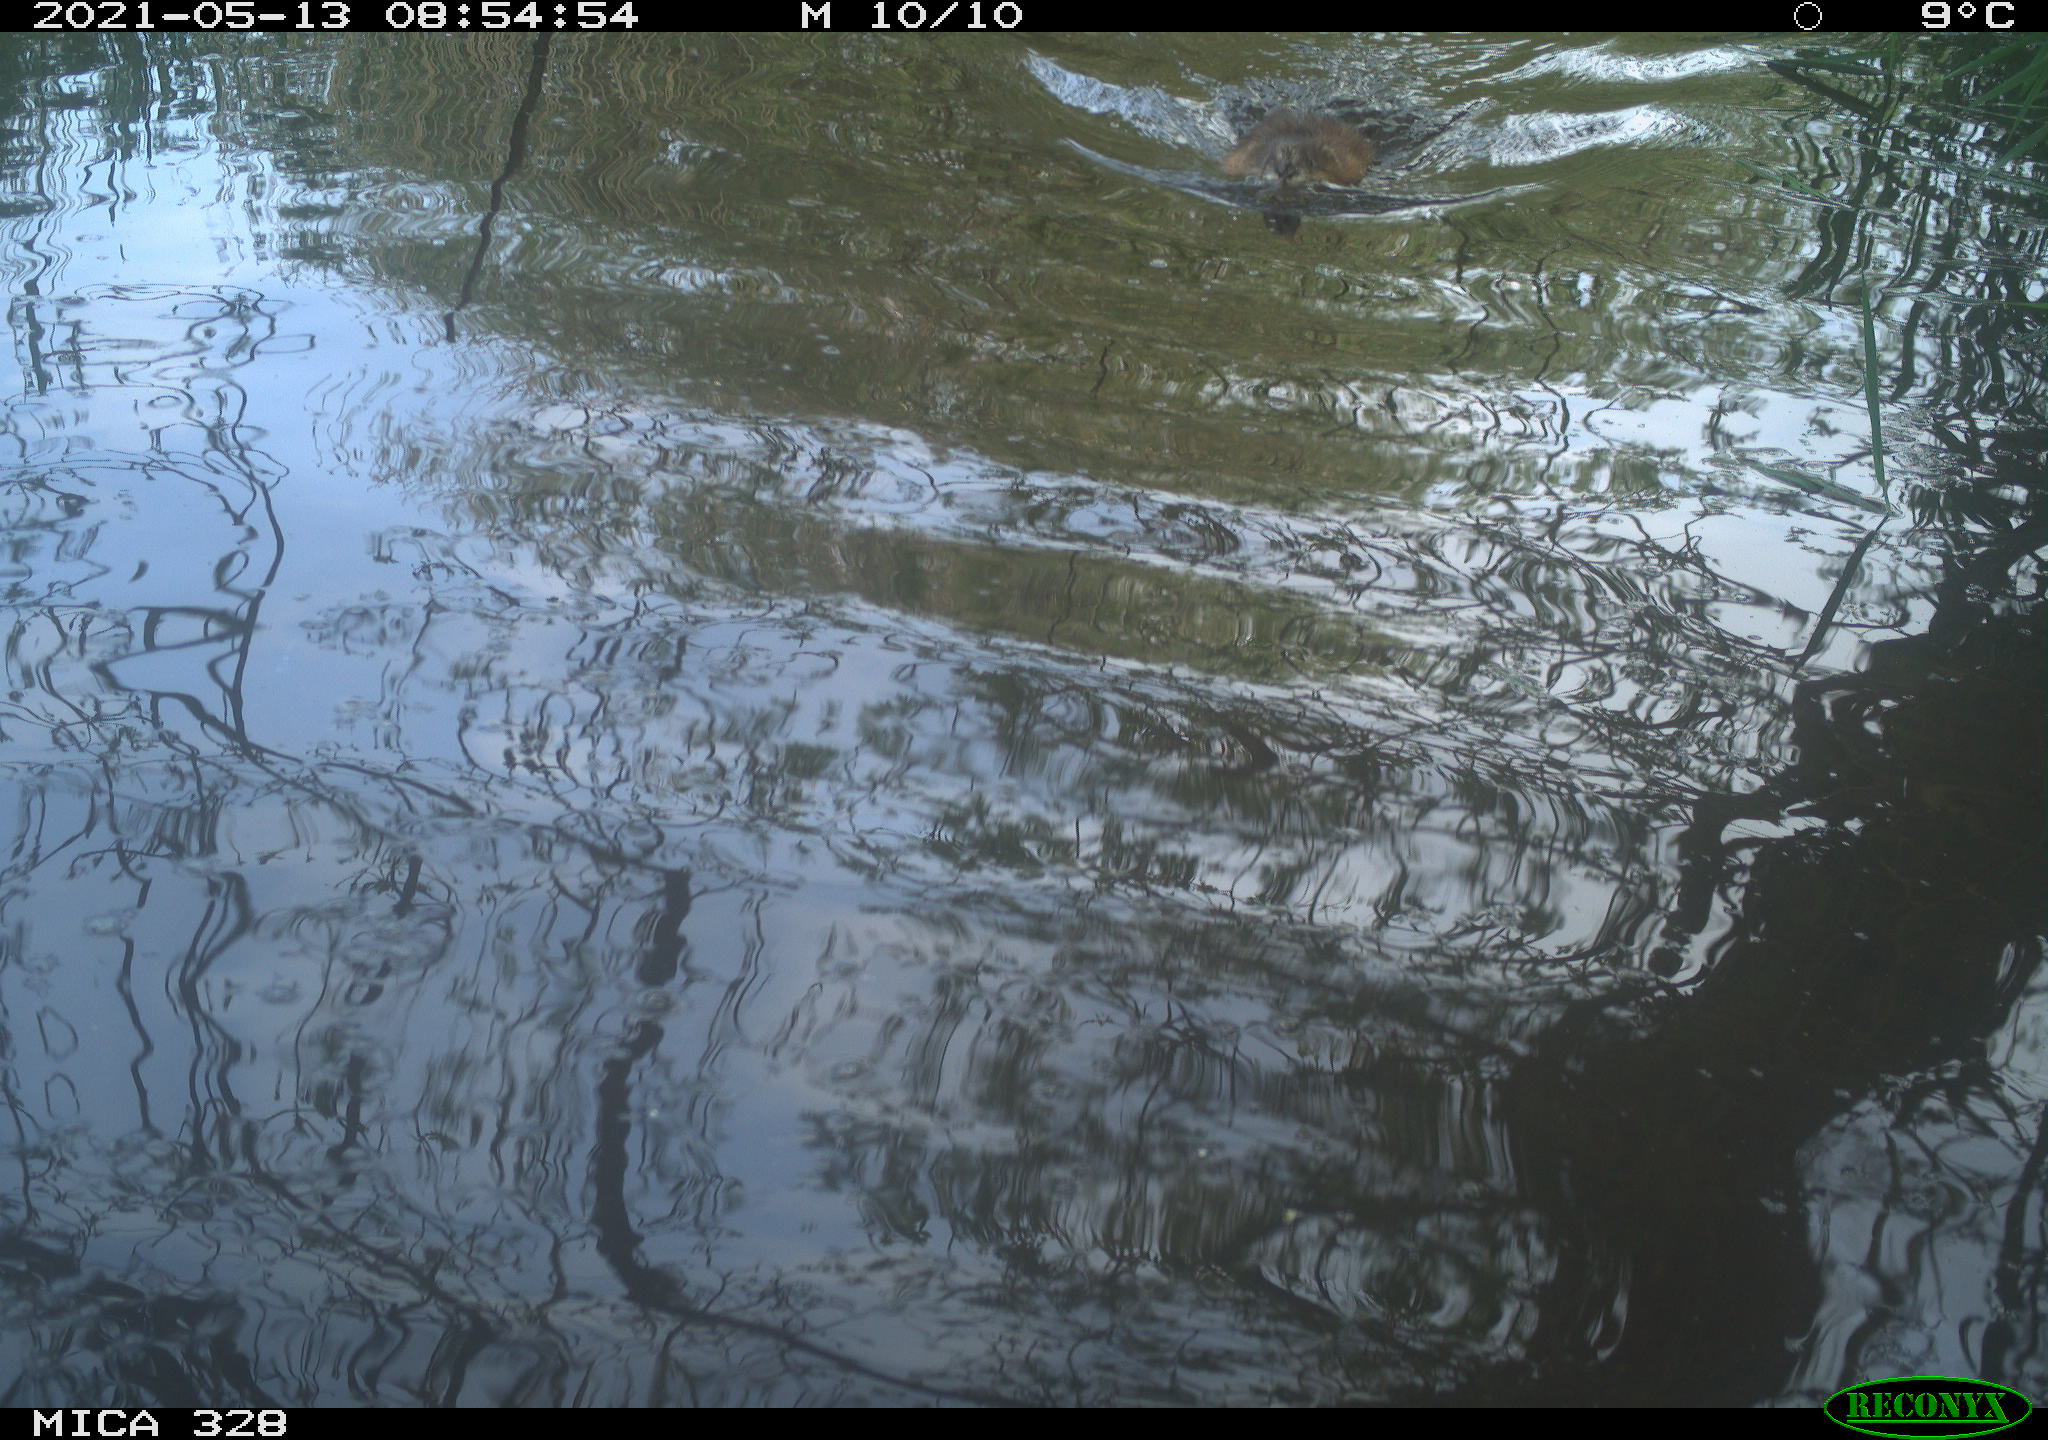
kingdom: Animalia
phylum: Chordata
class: Mammalia
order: Rodentia
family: Cricetidae
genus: Ondatra
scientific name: Ondatra zibethicus
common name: Muskrat
